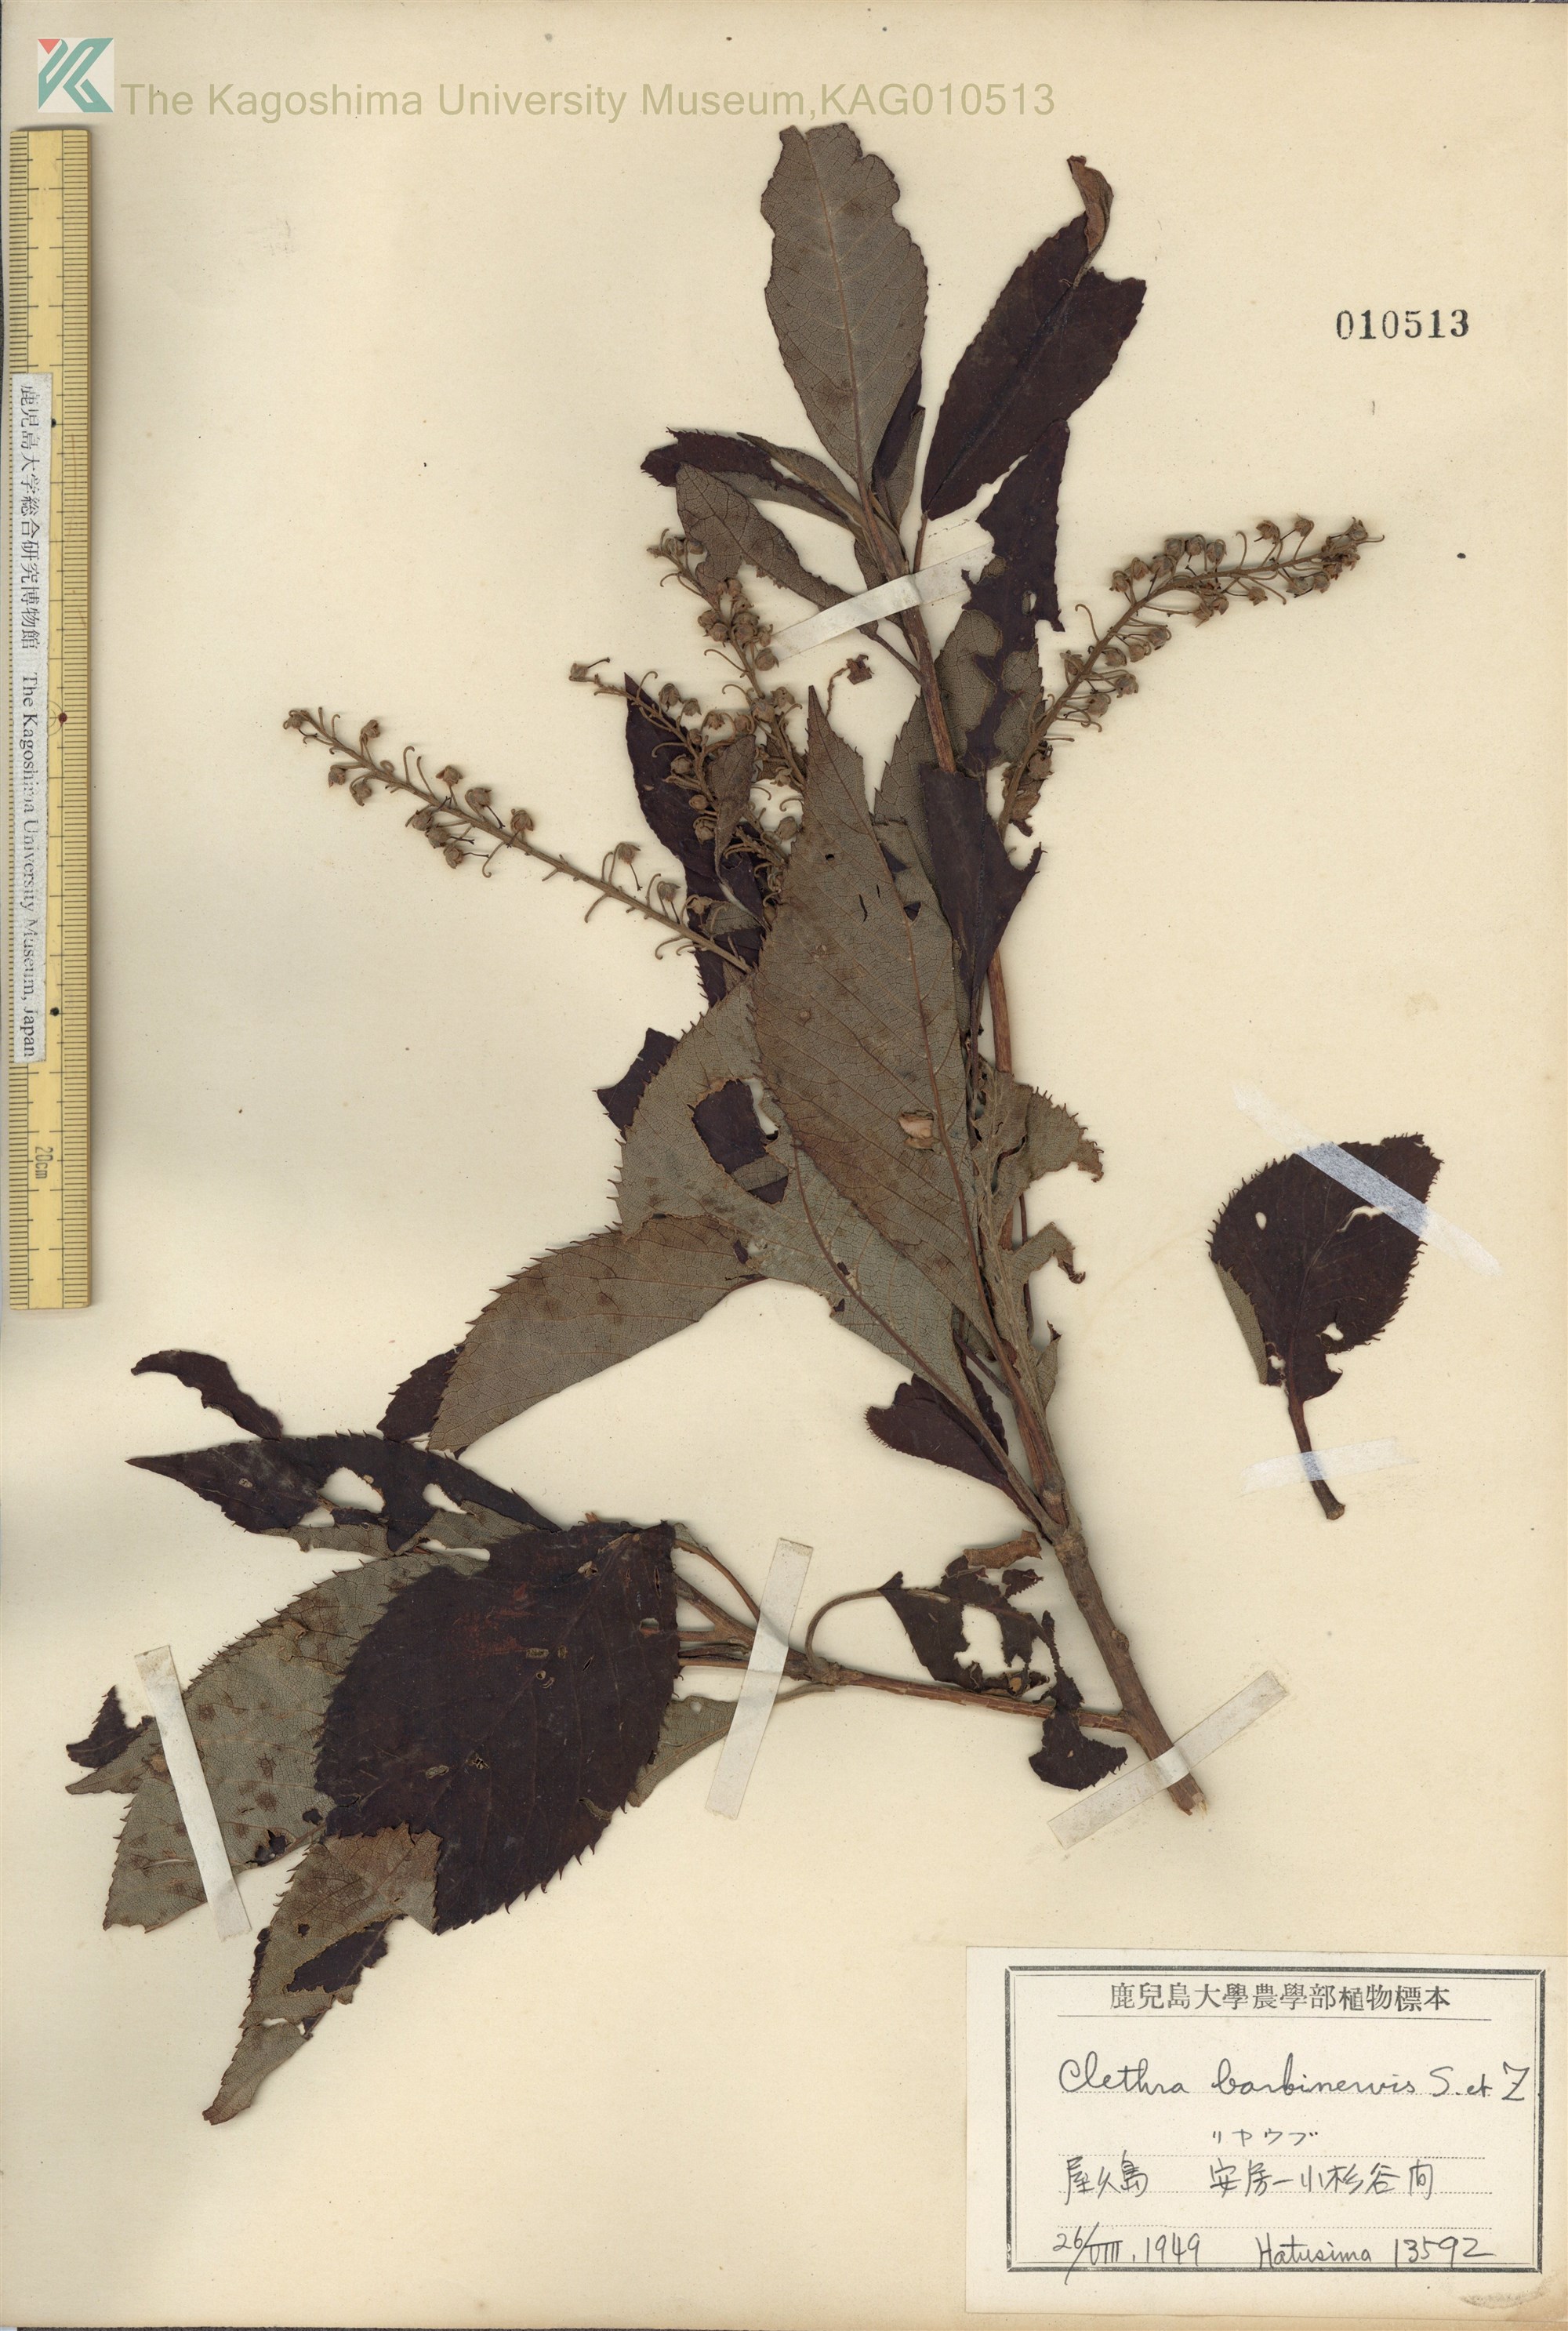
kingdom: Plantae
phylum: Tracheophyta
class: Magnoliopsida
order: Ericales
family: Clethraceae
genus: Clethra
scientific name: Clethra barbinervis
